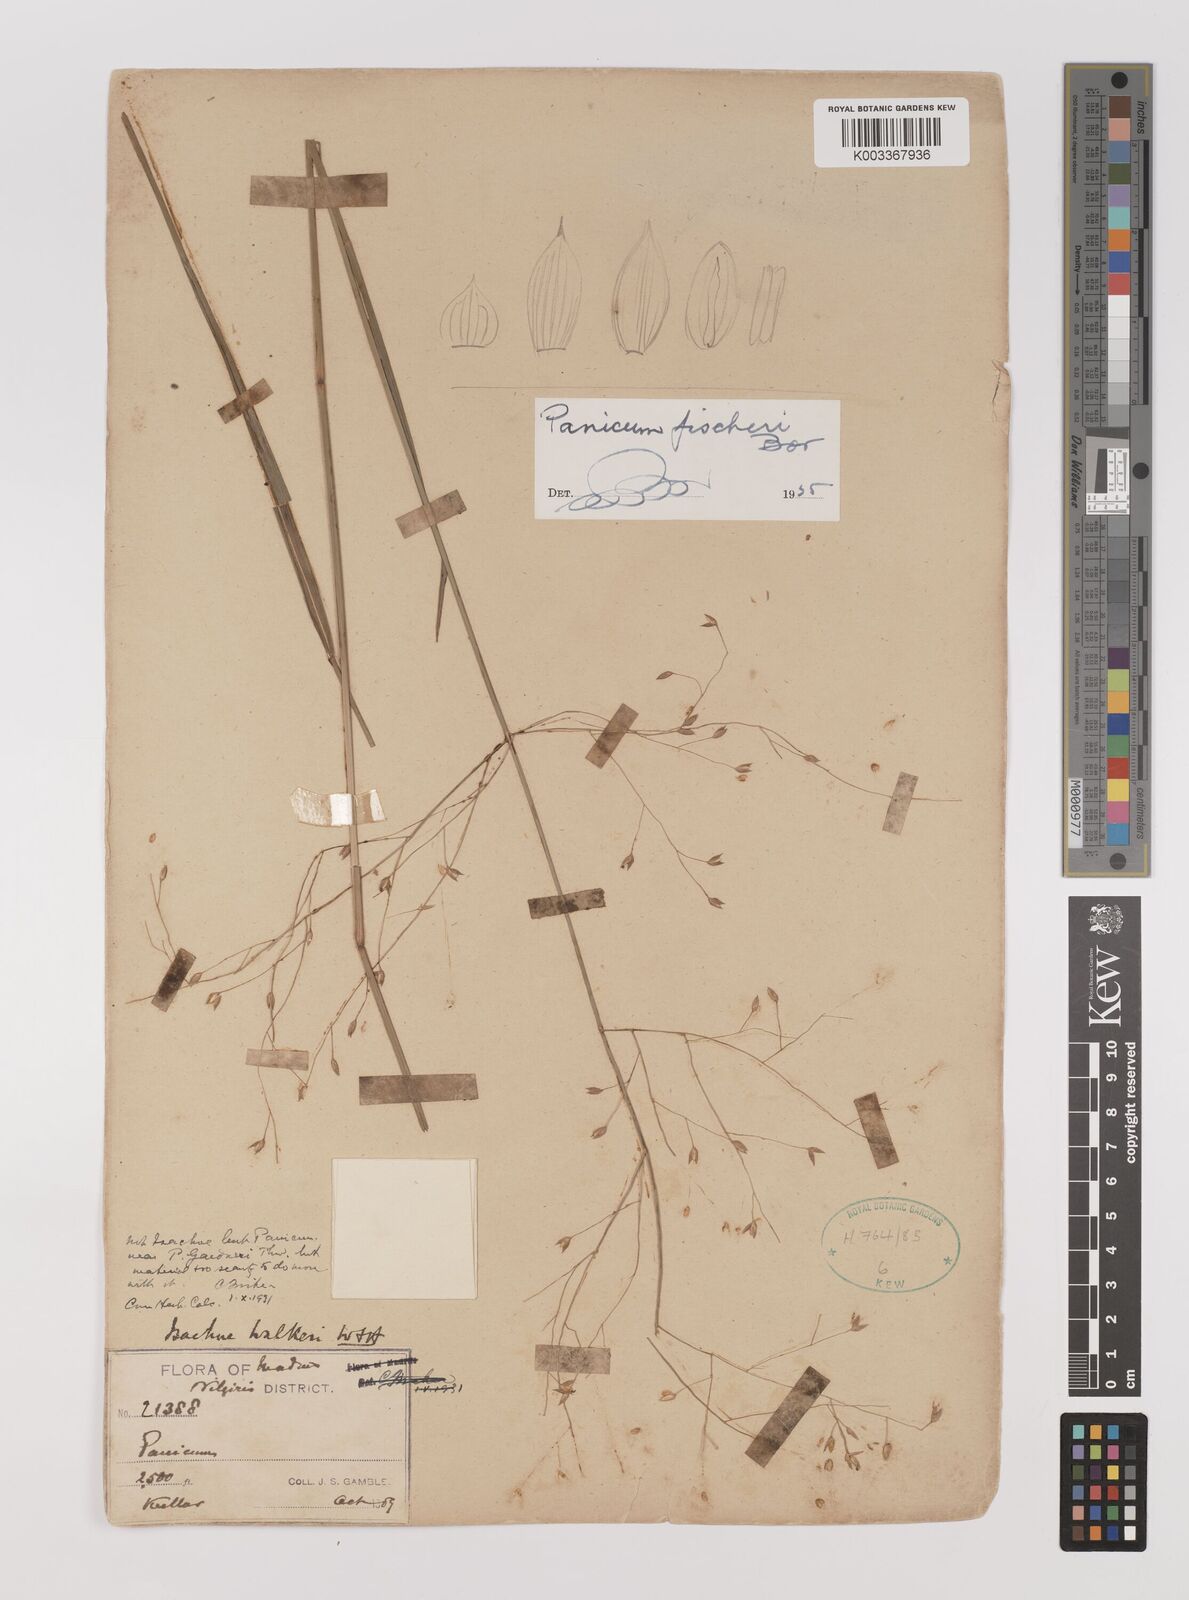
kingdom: Plantae
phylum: Tracheophyta
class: Liliopsida
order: Poales
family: Poaceae
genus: Panicum
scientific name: Panicum fischeri
